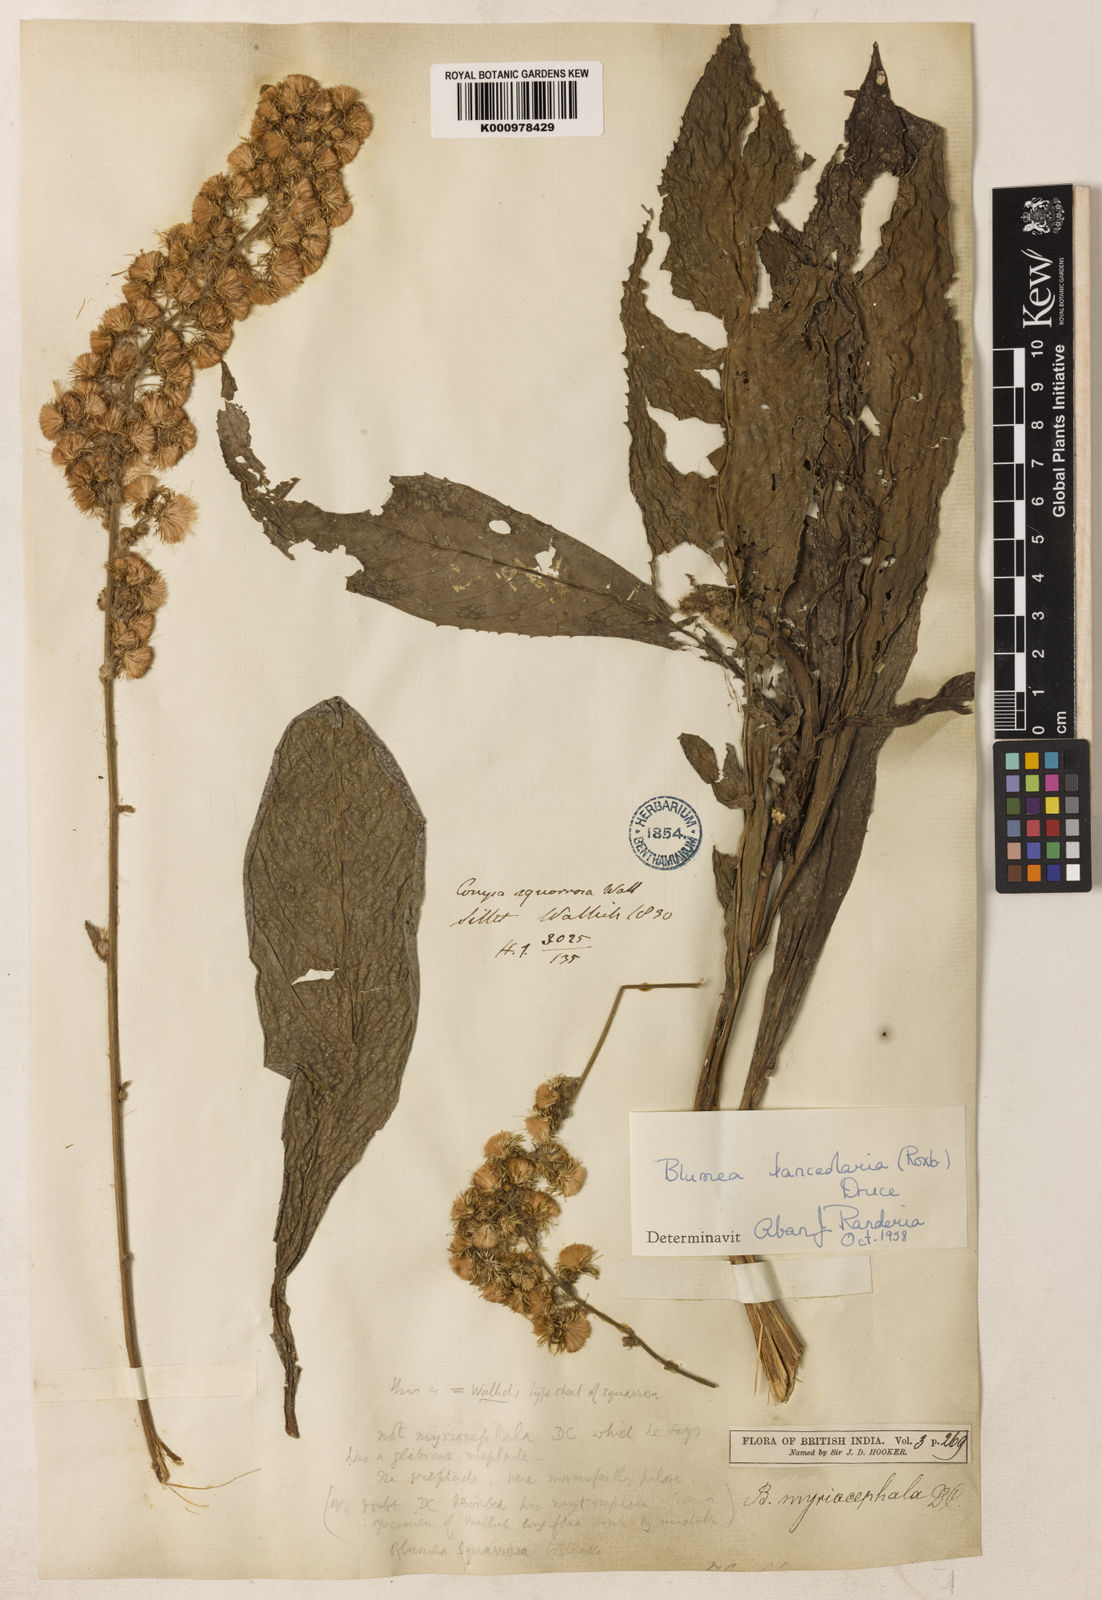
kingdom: Plantae
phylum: Tracheophyta
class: Magnoliopsida
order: Asterales
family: Asteraceae
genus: Blumea
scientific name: Blumea lanceolaria
